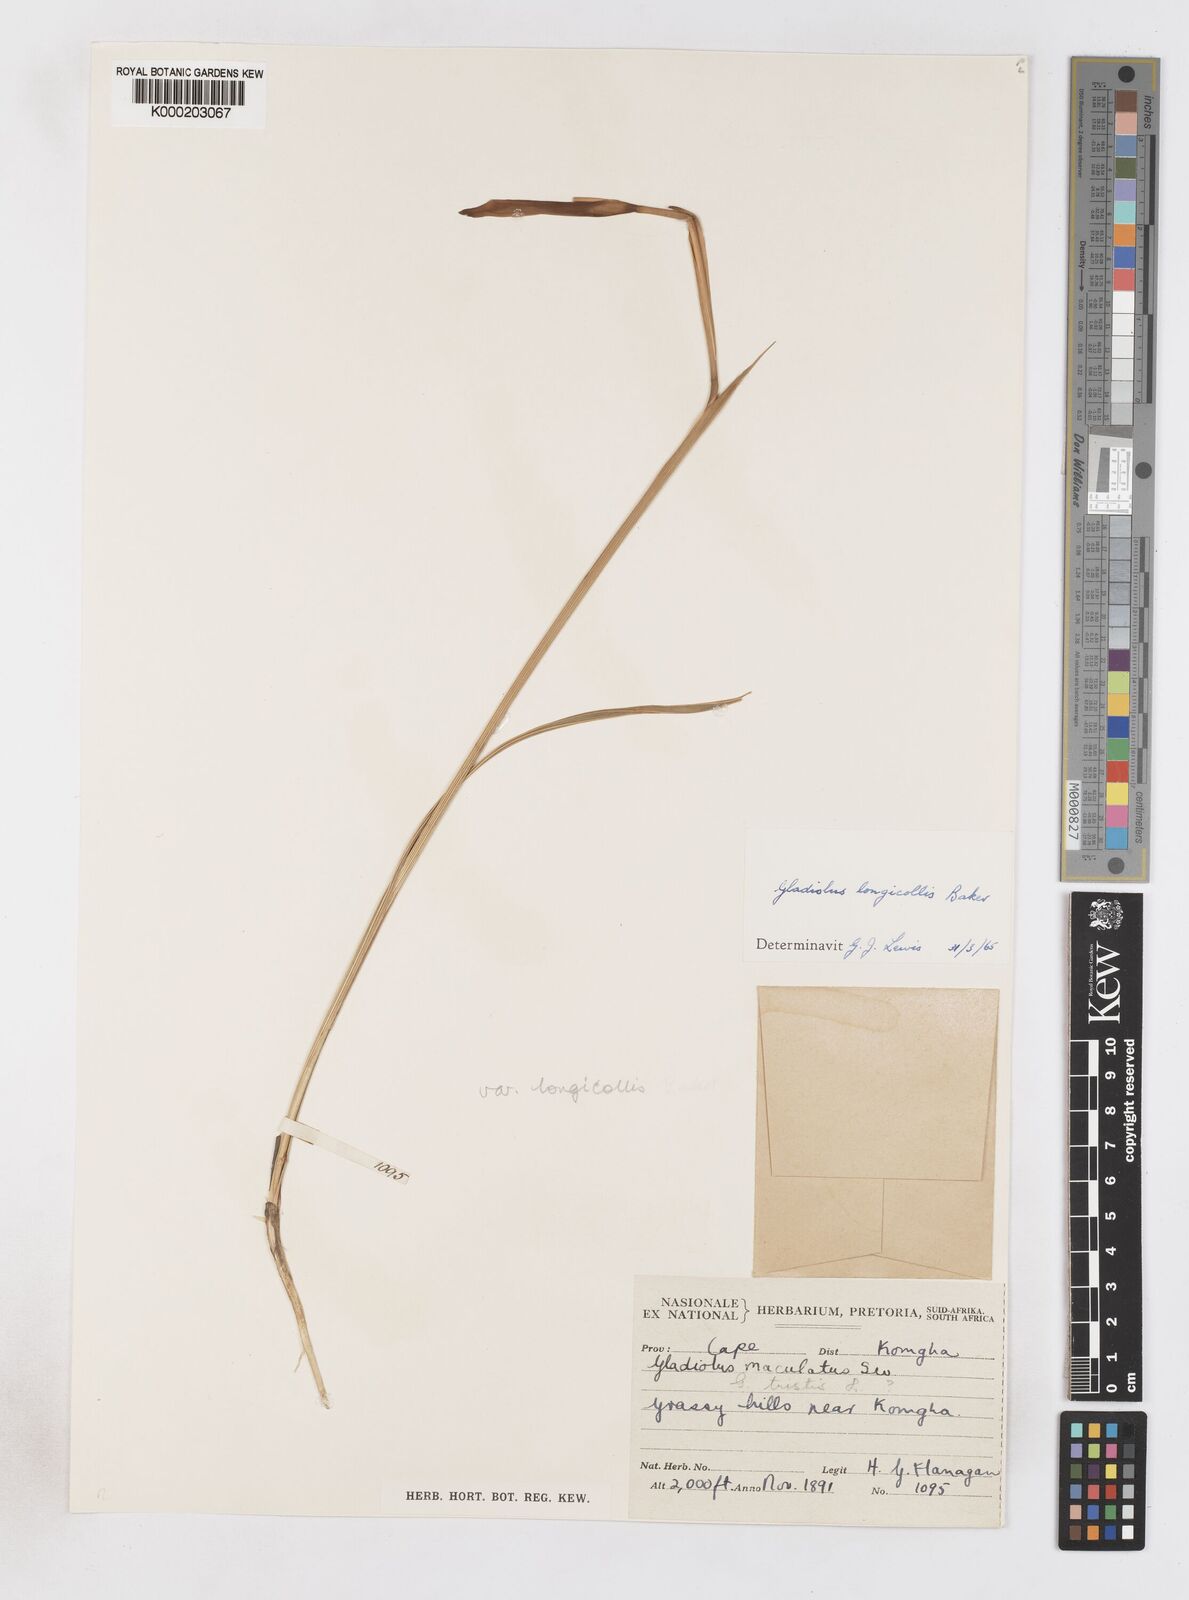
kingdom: Plantae
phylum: Tracheophyta
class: Liliopsida
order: Asparagales
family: Iridaceae
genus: Gladiolus
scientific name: Gladiolus longicollis
